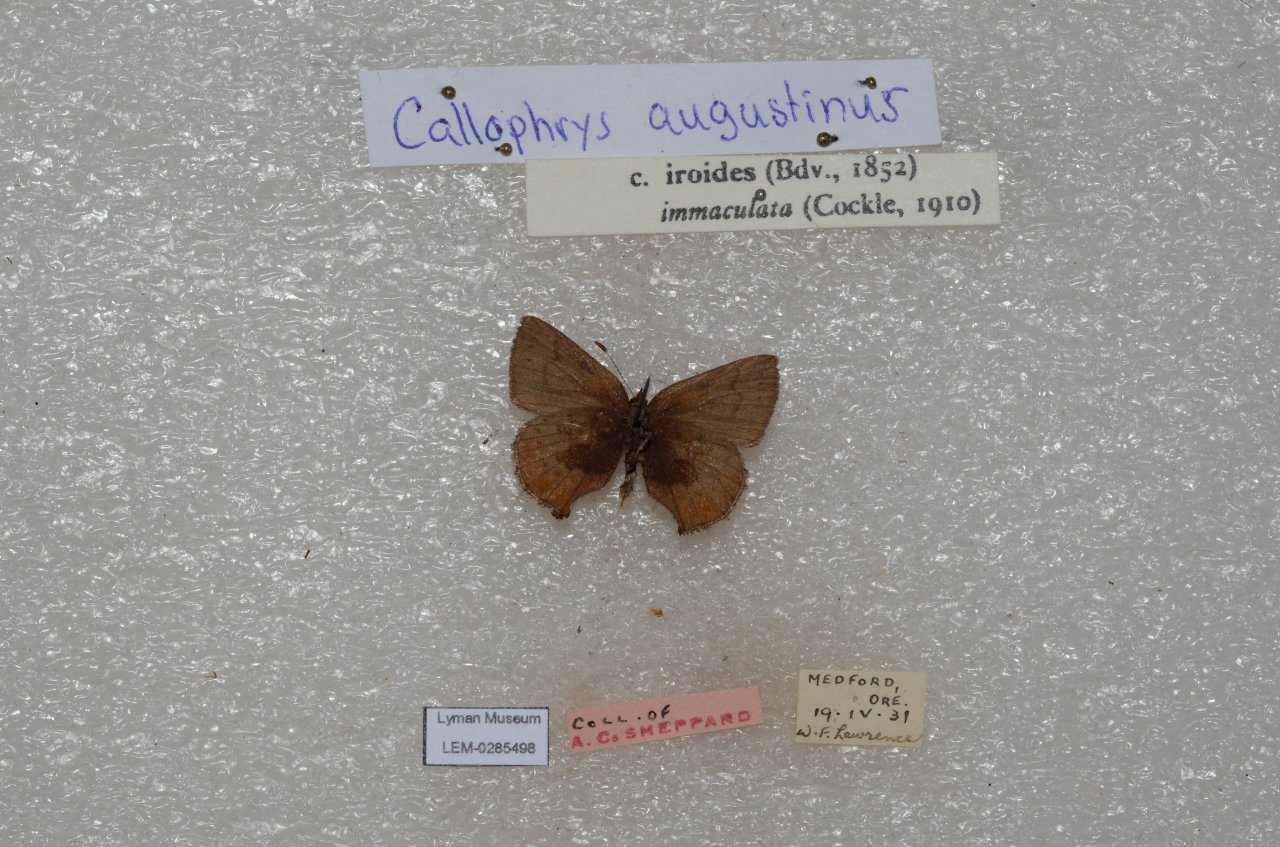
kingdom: Animalia
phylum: Arthropoda
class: Insecta
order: Lepidoptera
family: Lycaenidae
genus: Incisalia
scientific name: Incisalia irioides
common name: Brown Elfin
